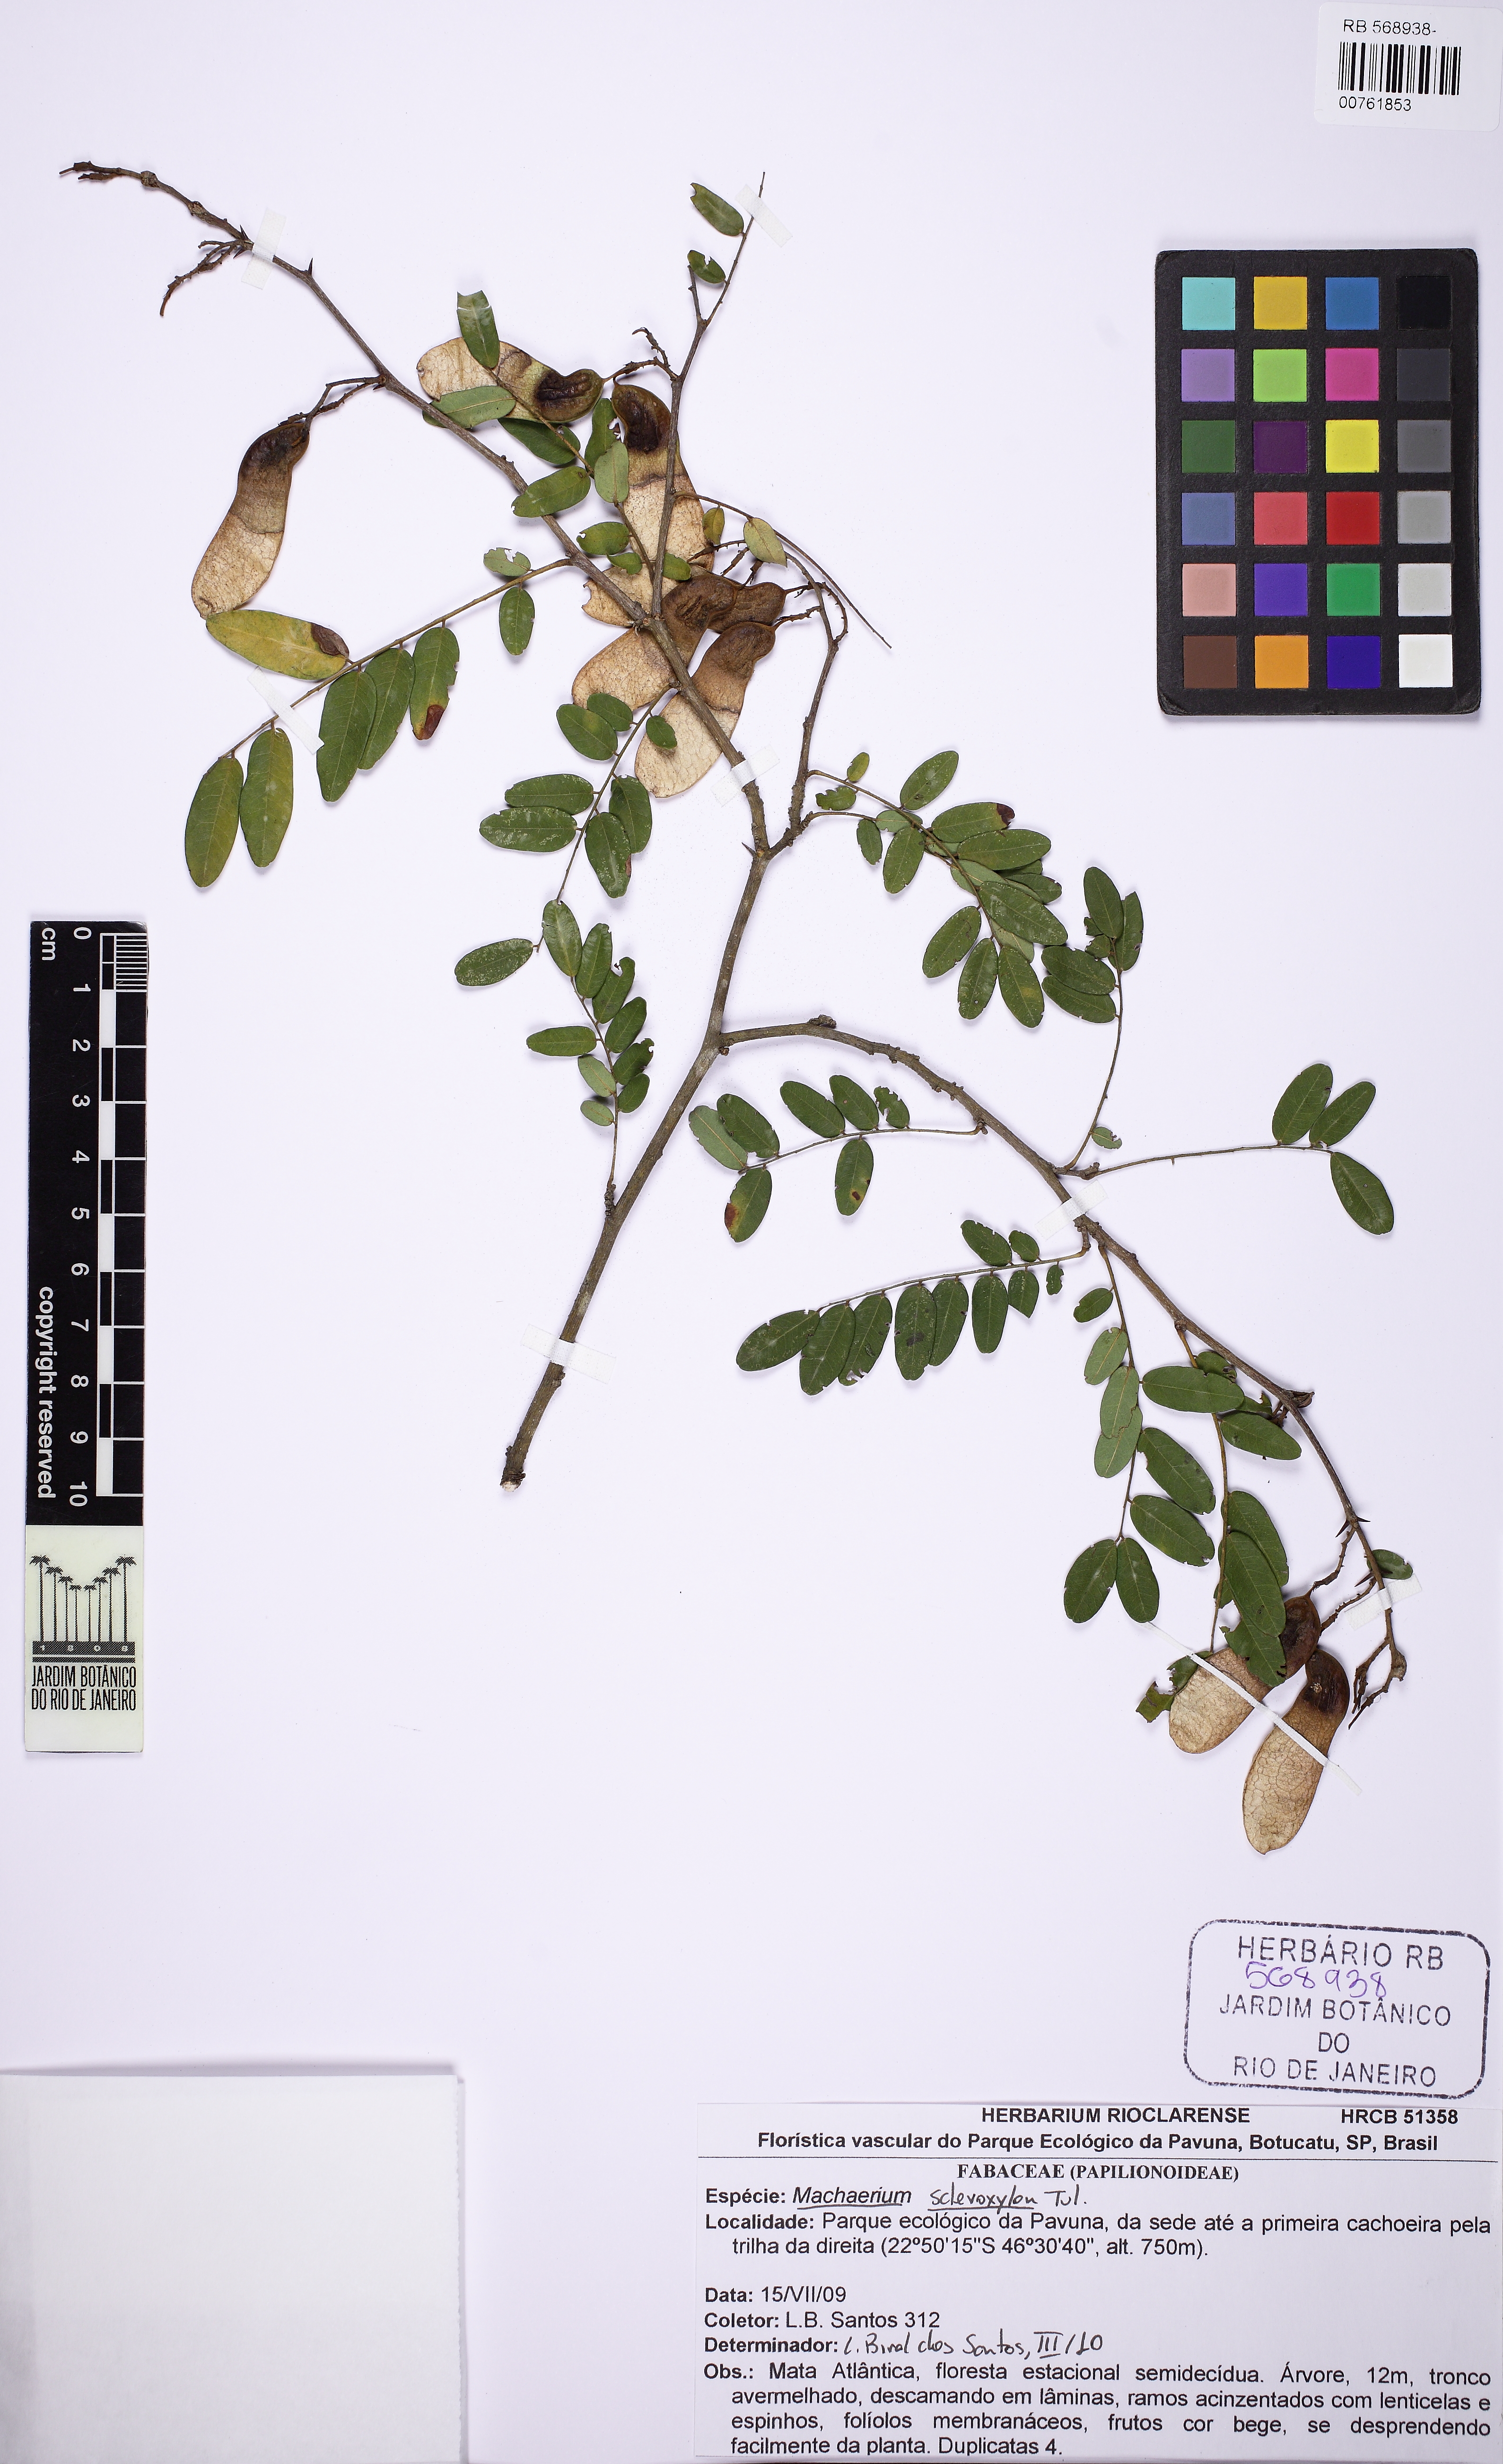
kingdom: Plantae
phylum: Tracheophyta
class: Magnoliopsida
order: Fabales
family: Fabaceae
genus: Machaerium
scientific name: Machaerium scleroxylon
